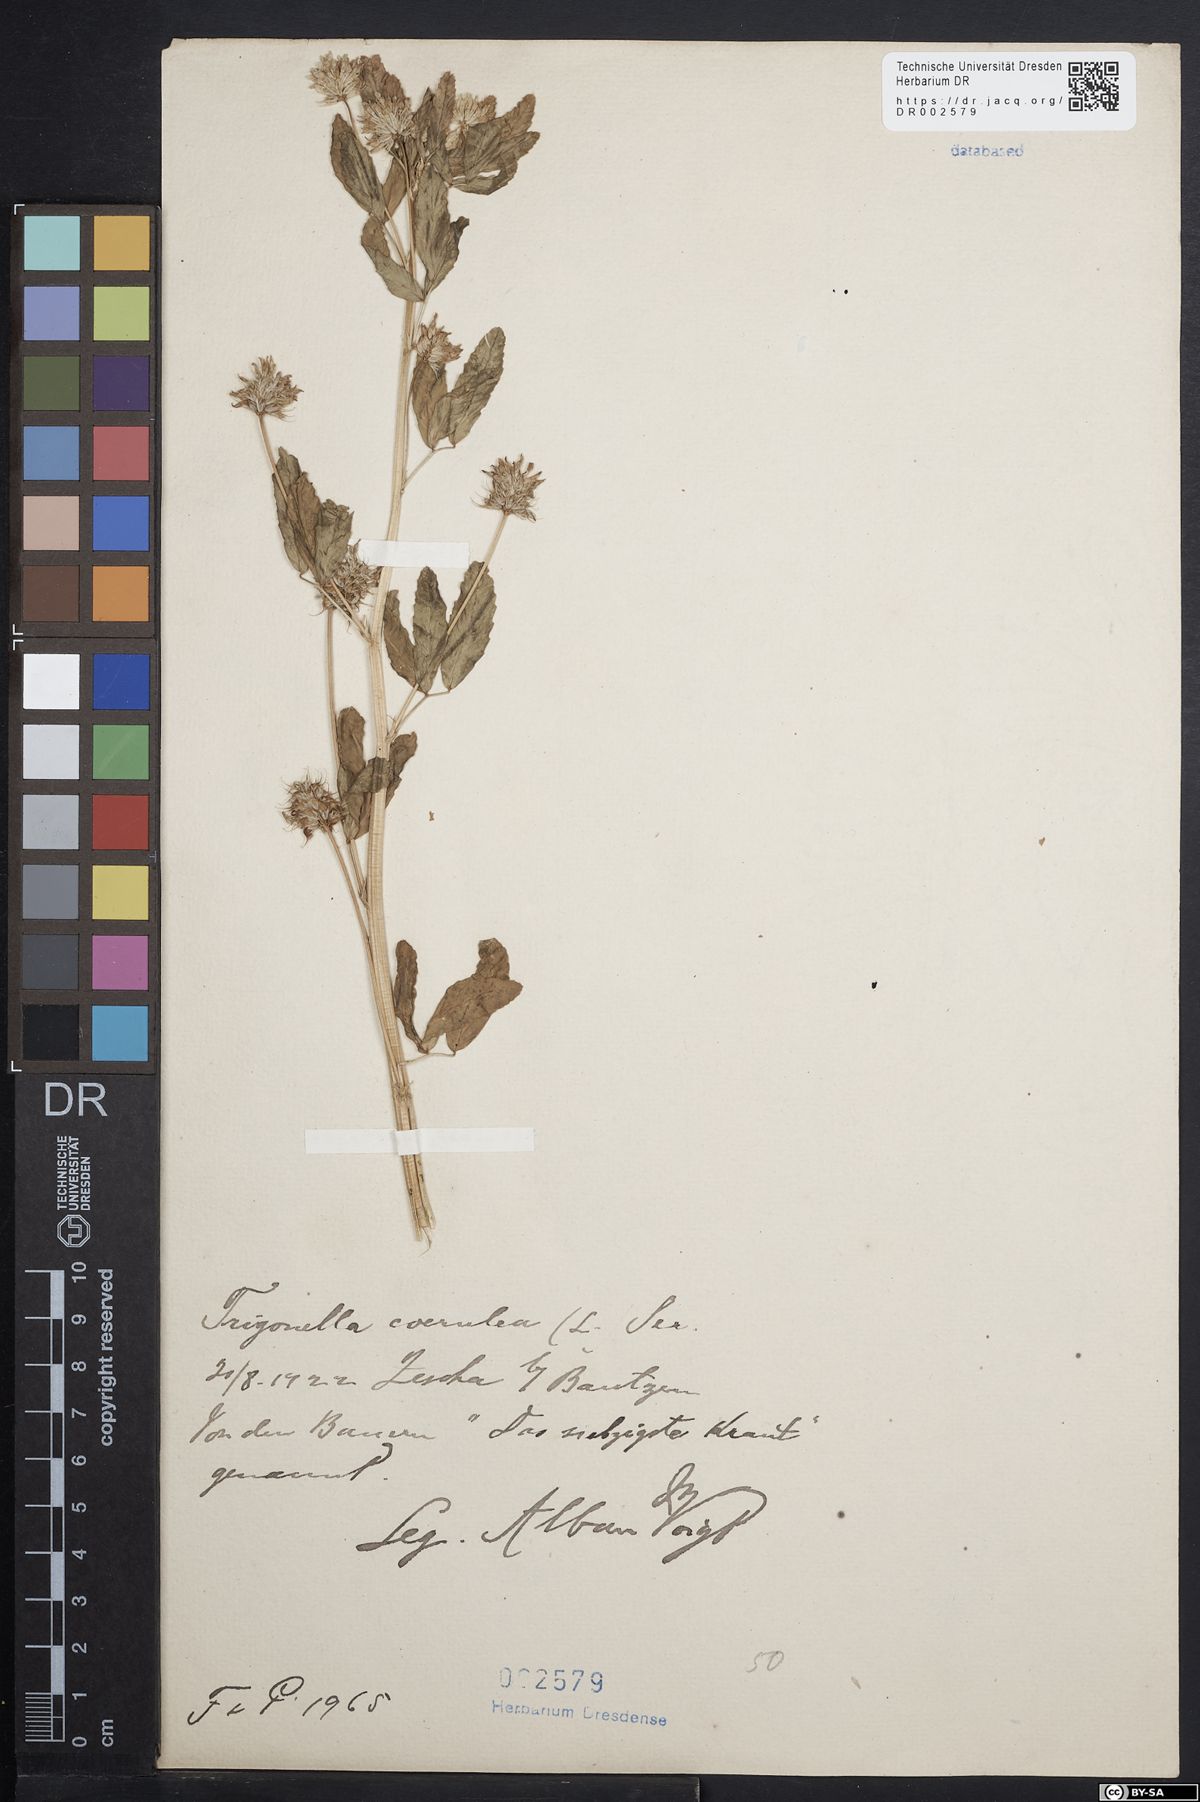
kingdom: Plantae
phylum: Tracheophyta
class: Magnoliopsida
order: Fabales
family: Fabaceae
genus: Trigonella
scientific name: Trigonella caerulea
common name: Blue fenugreek
